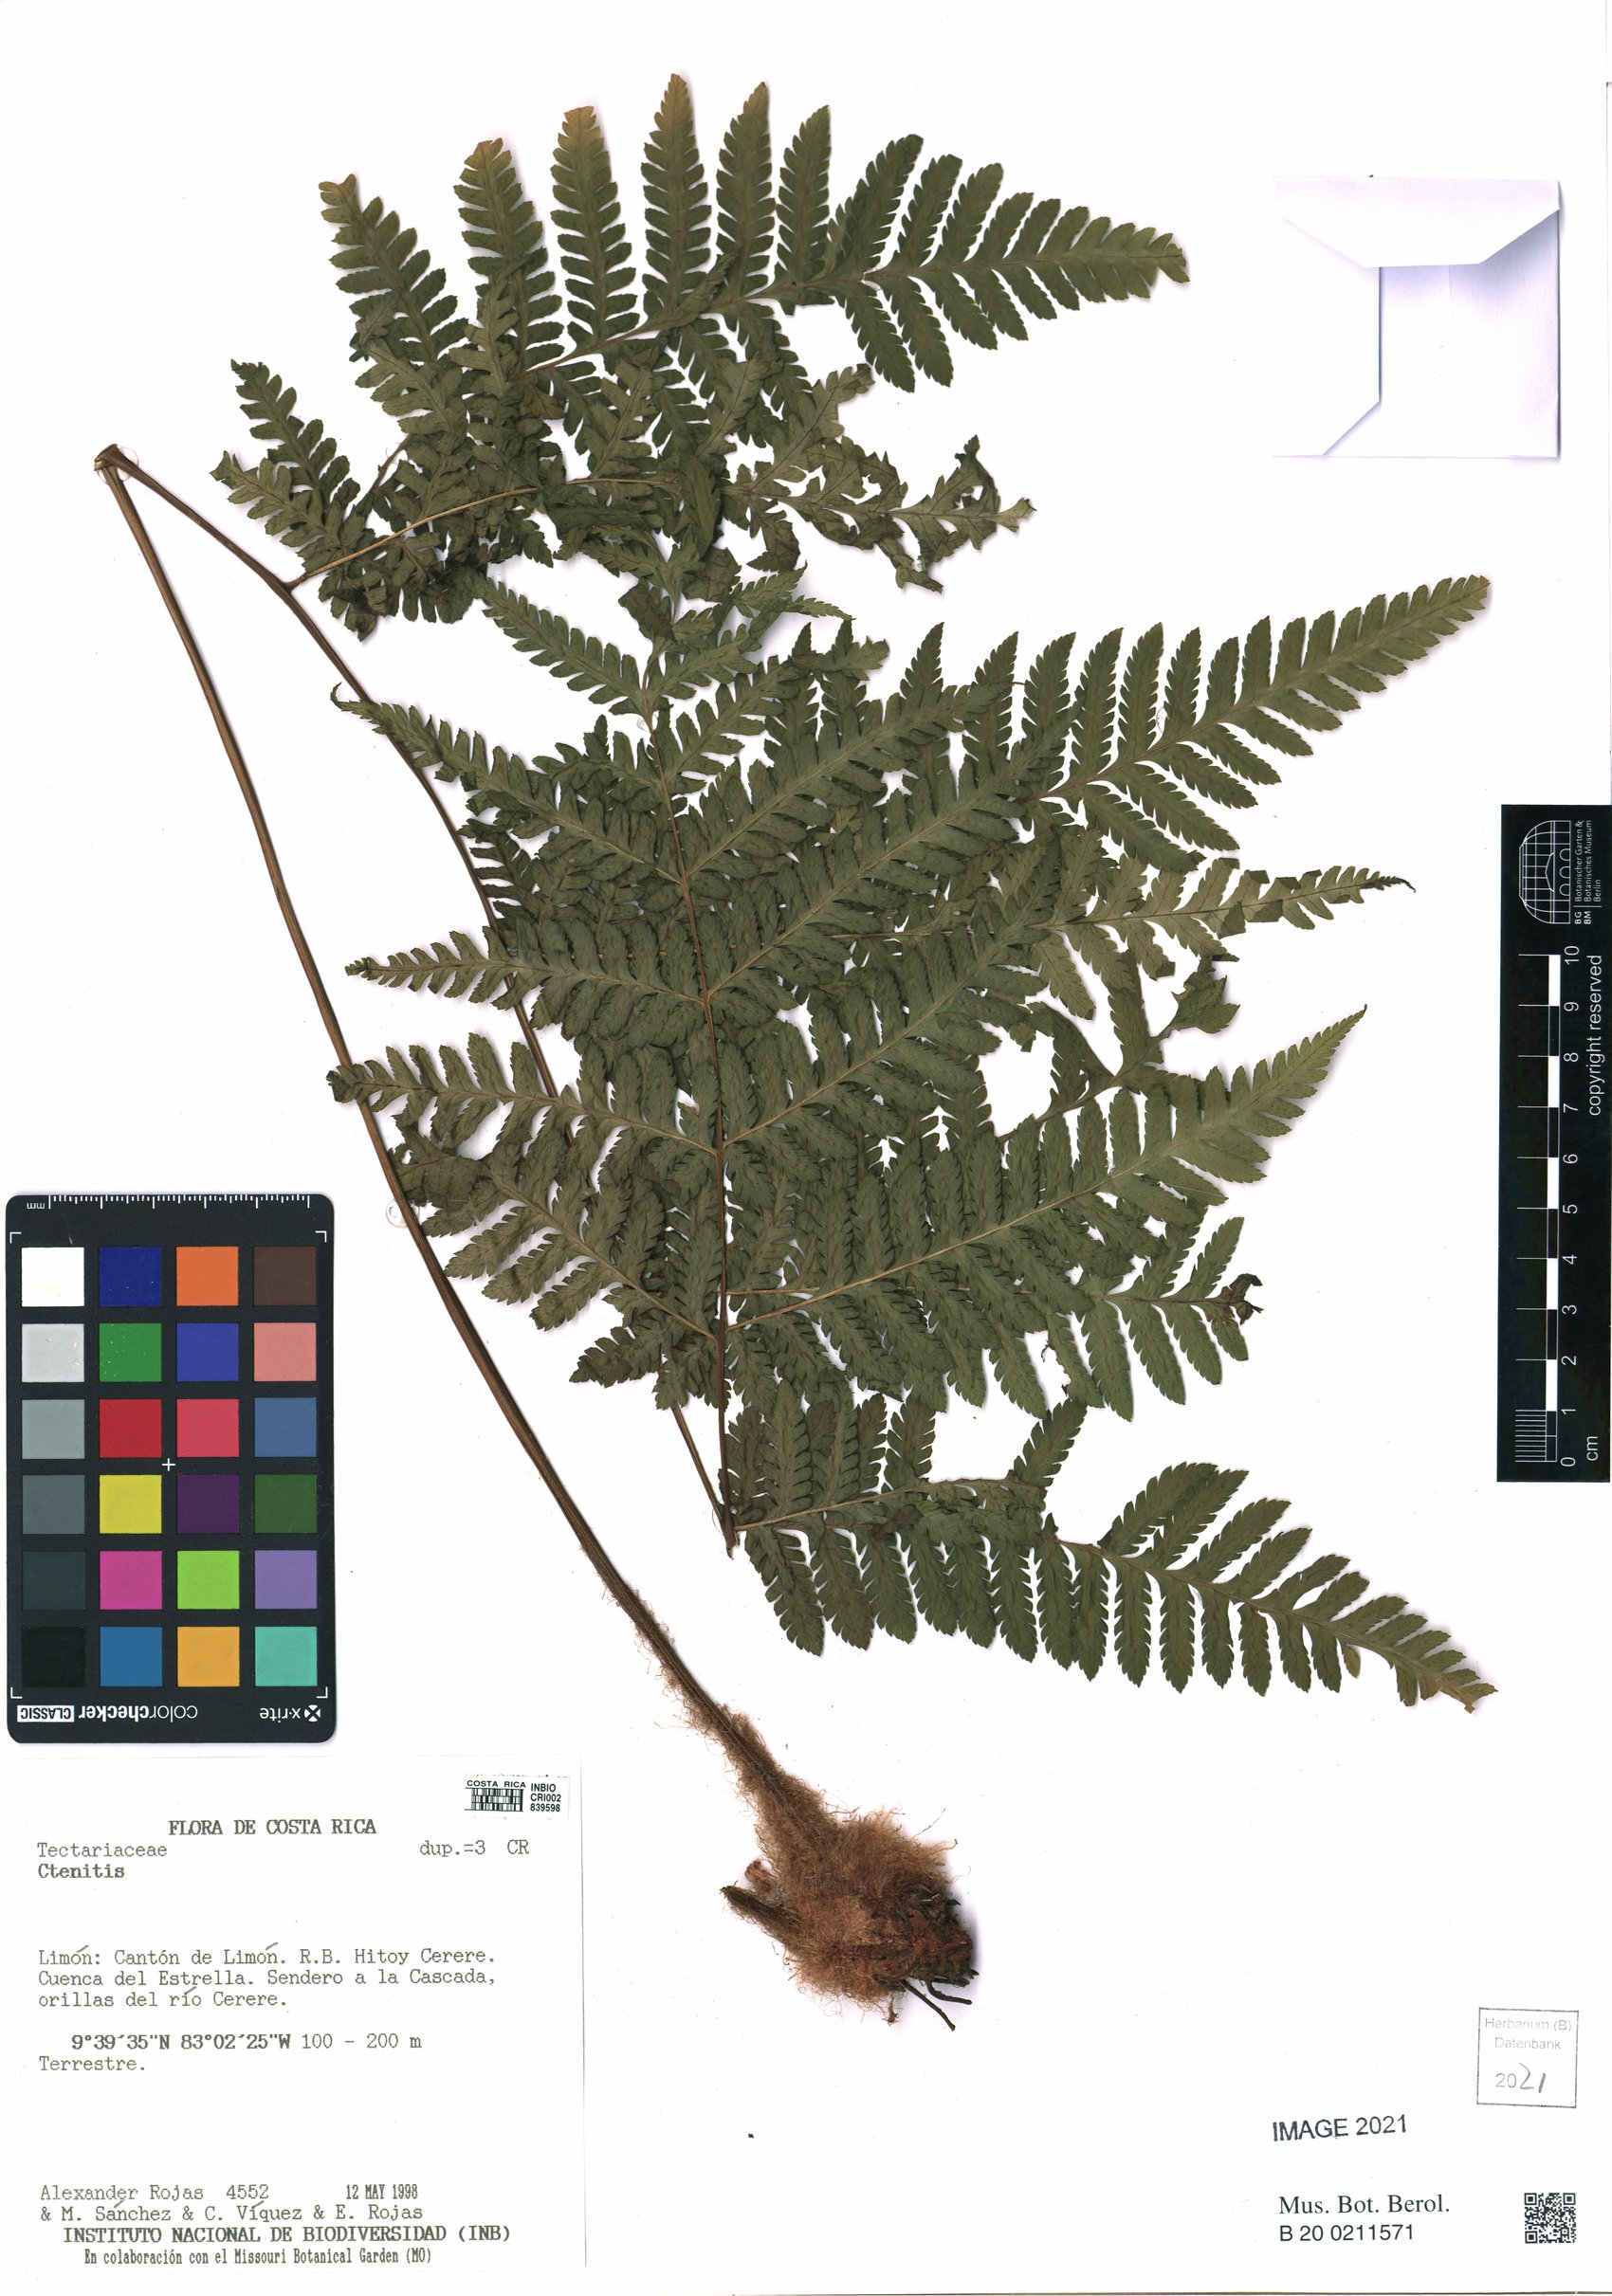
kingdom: Plantae
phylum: Tracheophyta
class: Polypodiopsida
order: Polypodiales
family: Dryopteridaceae
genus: Ctenitis
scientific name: Ctenitis
